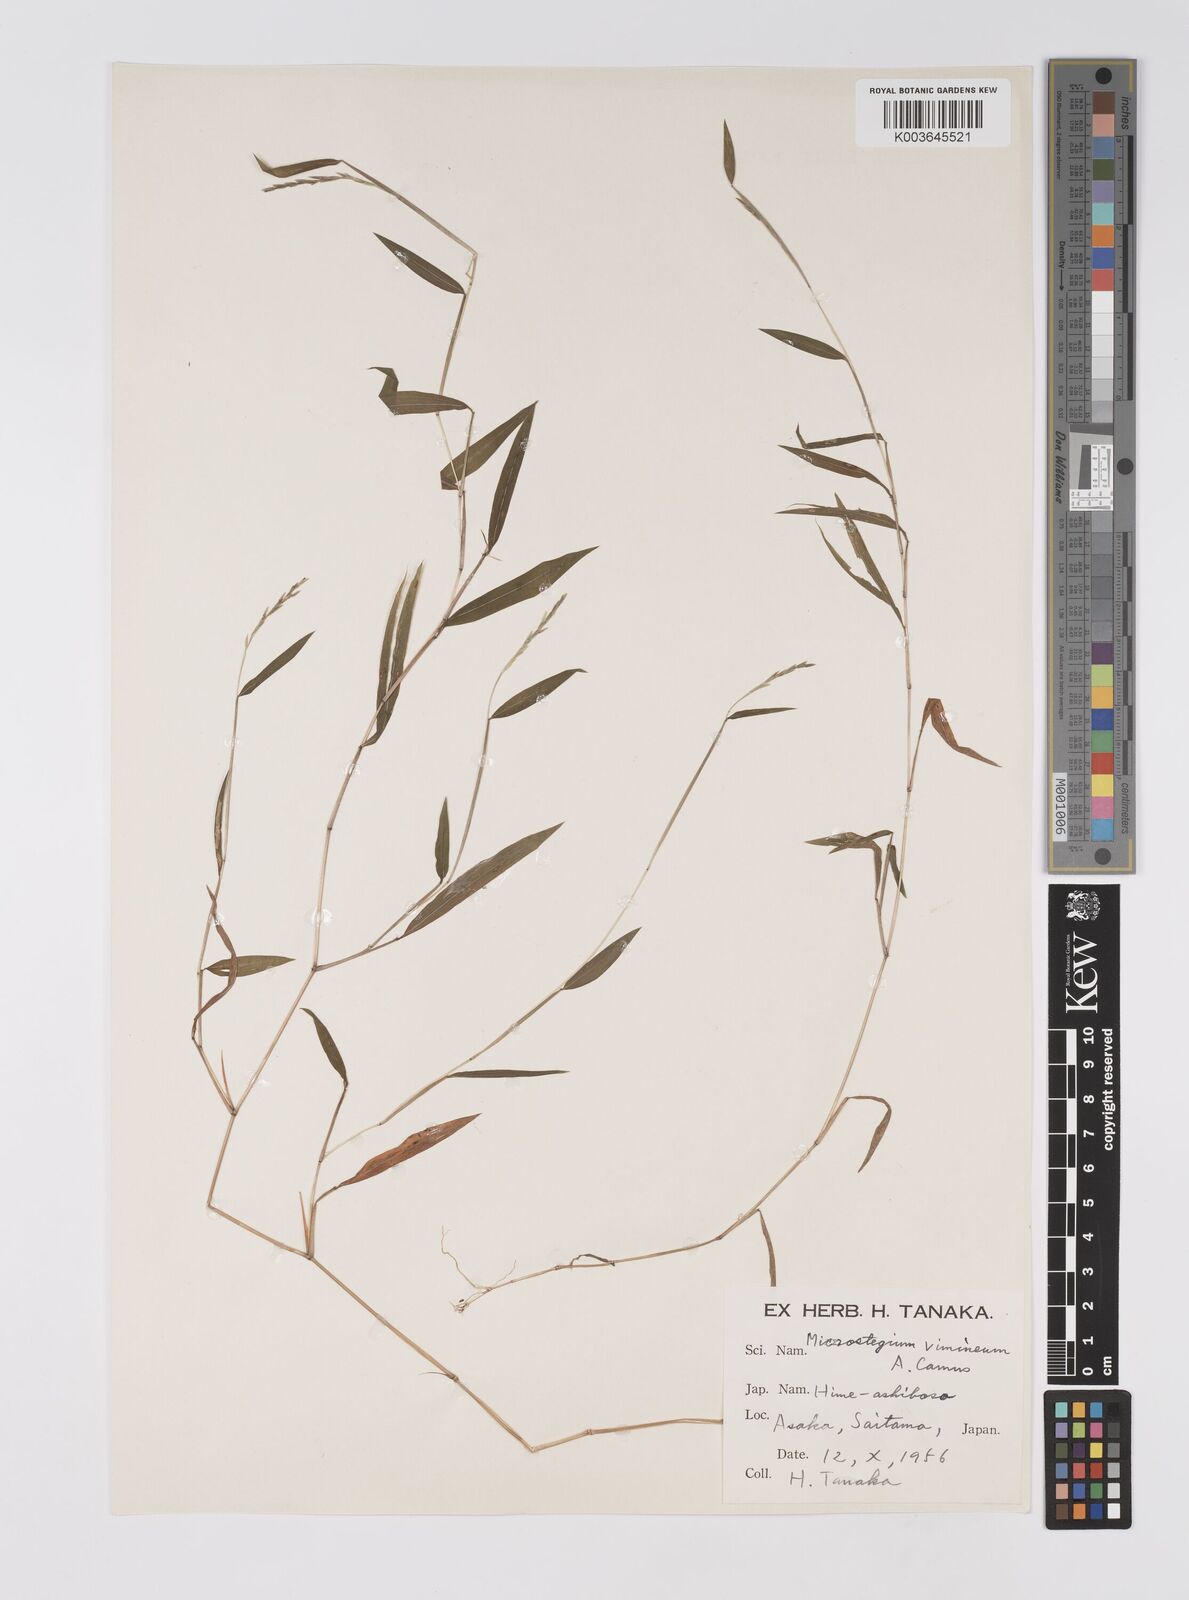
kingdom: Plantae
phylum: Tracheophyta
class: Liliopsida
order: Poales
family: Poaceae
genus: Microstegium
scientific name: Microstegium vimineum
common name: Japanese stiltgrass
